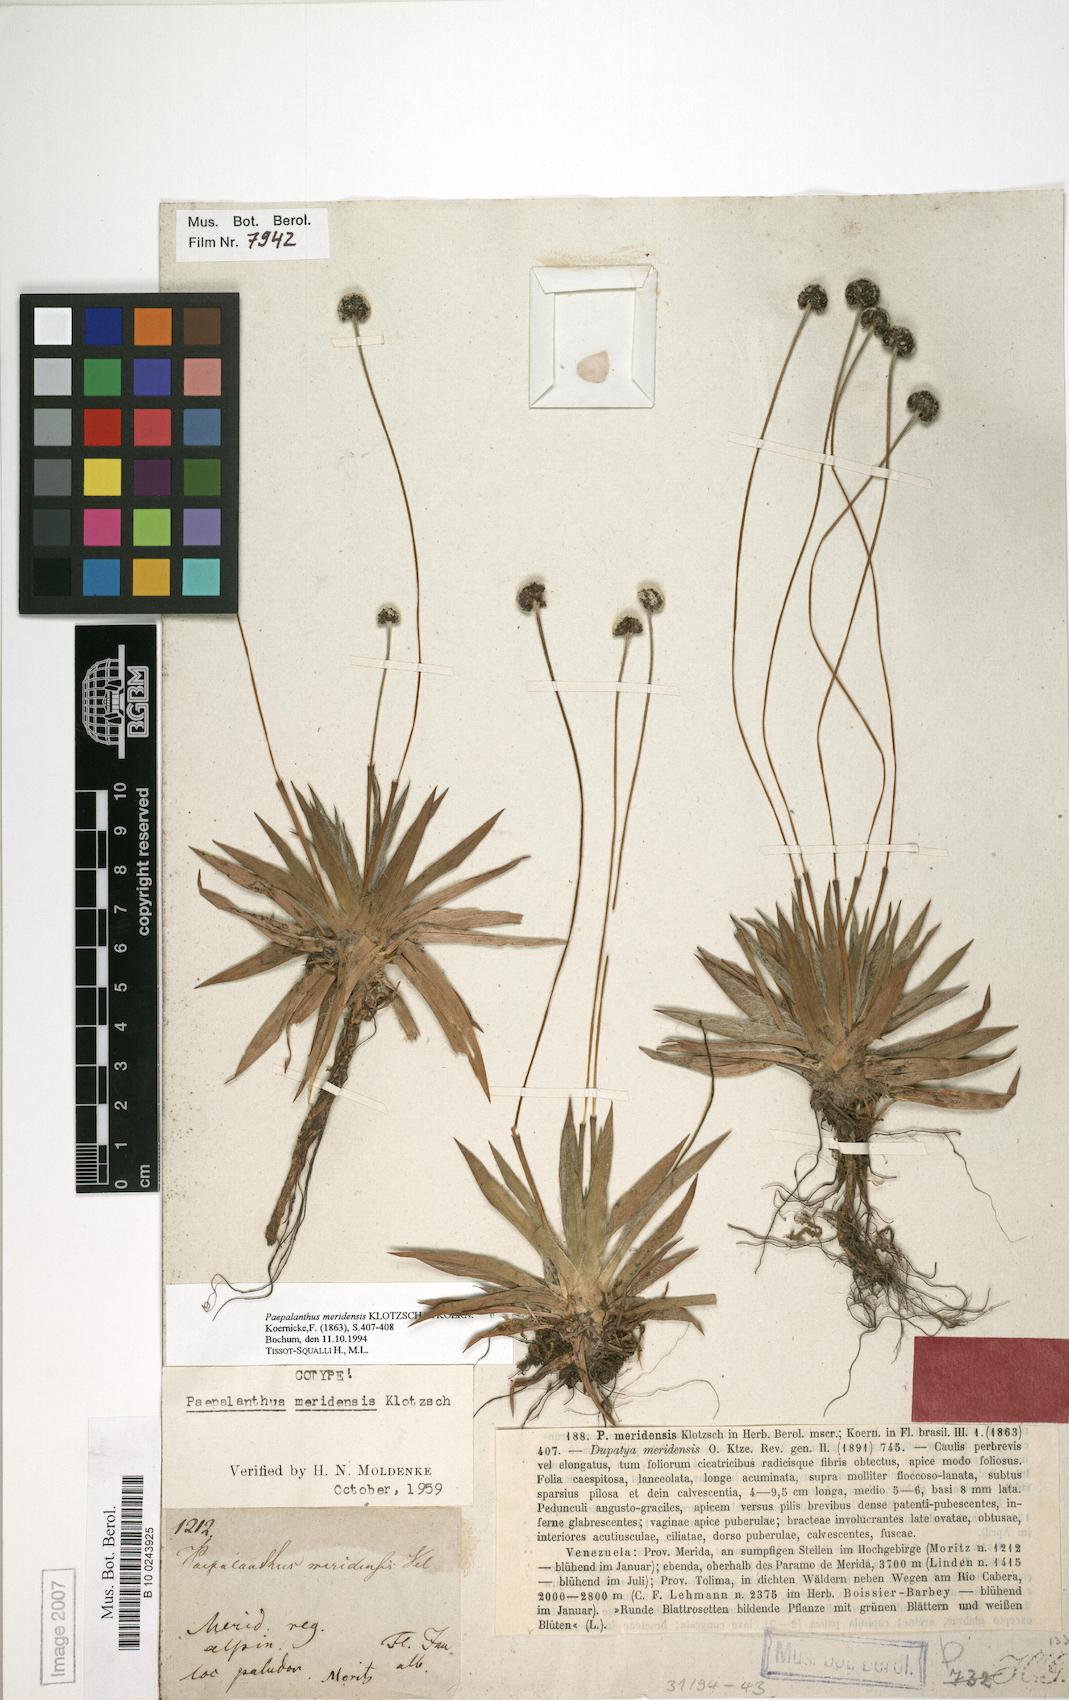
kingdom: Plantae
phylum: Tracheophyta
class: Liliopsida
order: Poales
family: Eriocaulaceae
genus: Paepalanthus
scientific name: Paepalanthus meridensis
